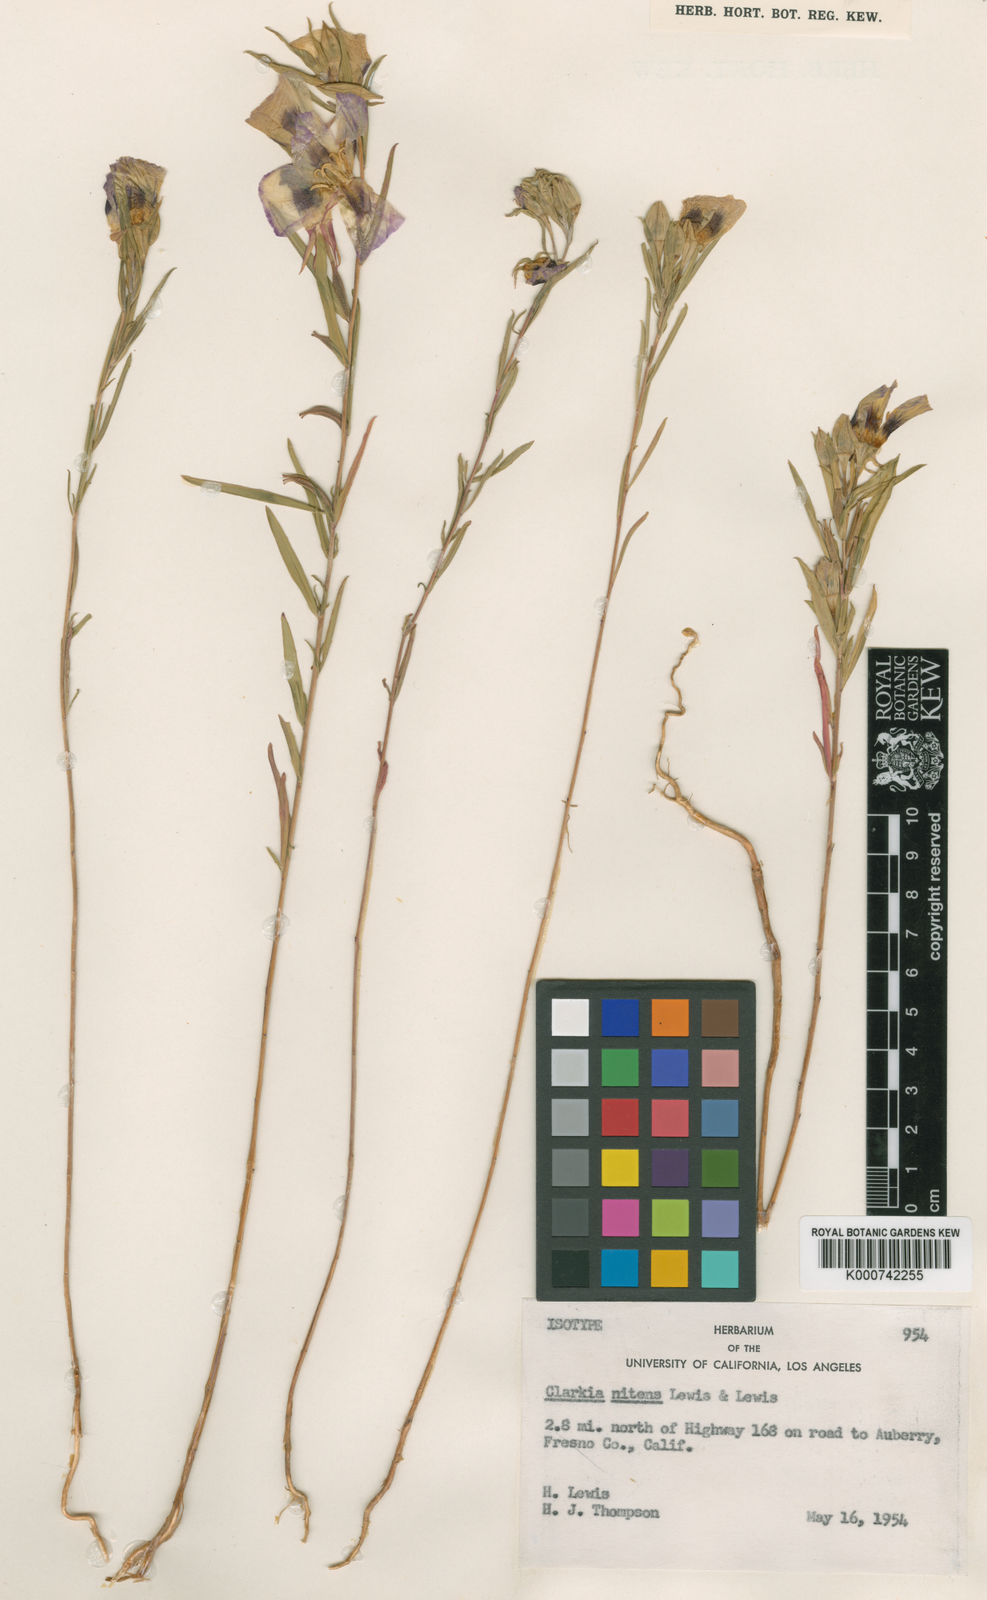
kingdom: Plantae
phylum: Tracheophyta
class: Magnoliopsida
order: Myrtales
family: Onagraceae
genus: Clarkia
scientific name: Clarkia speciosa
